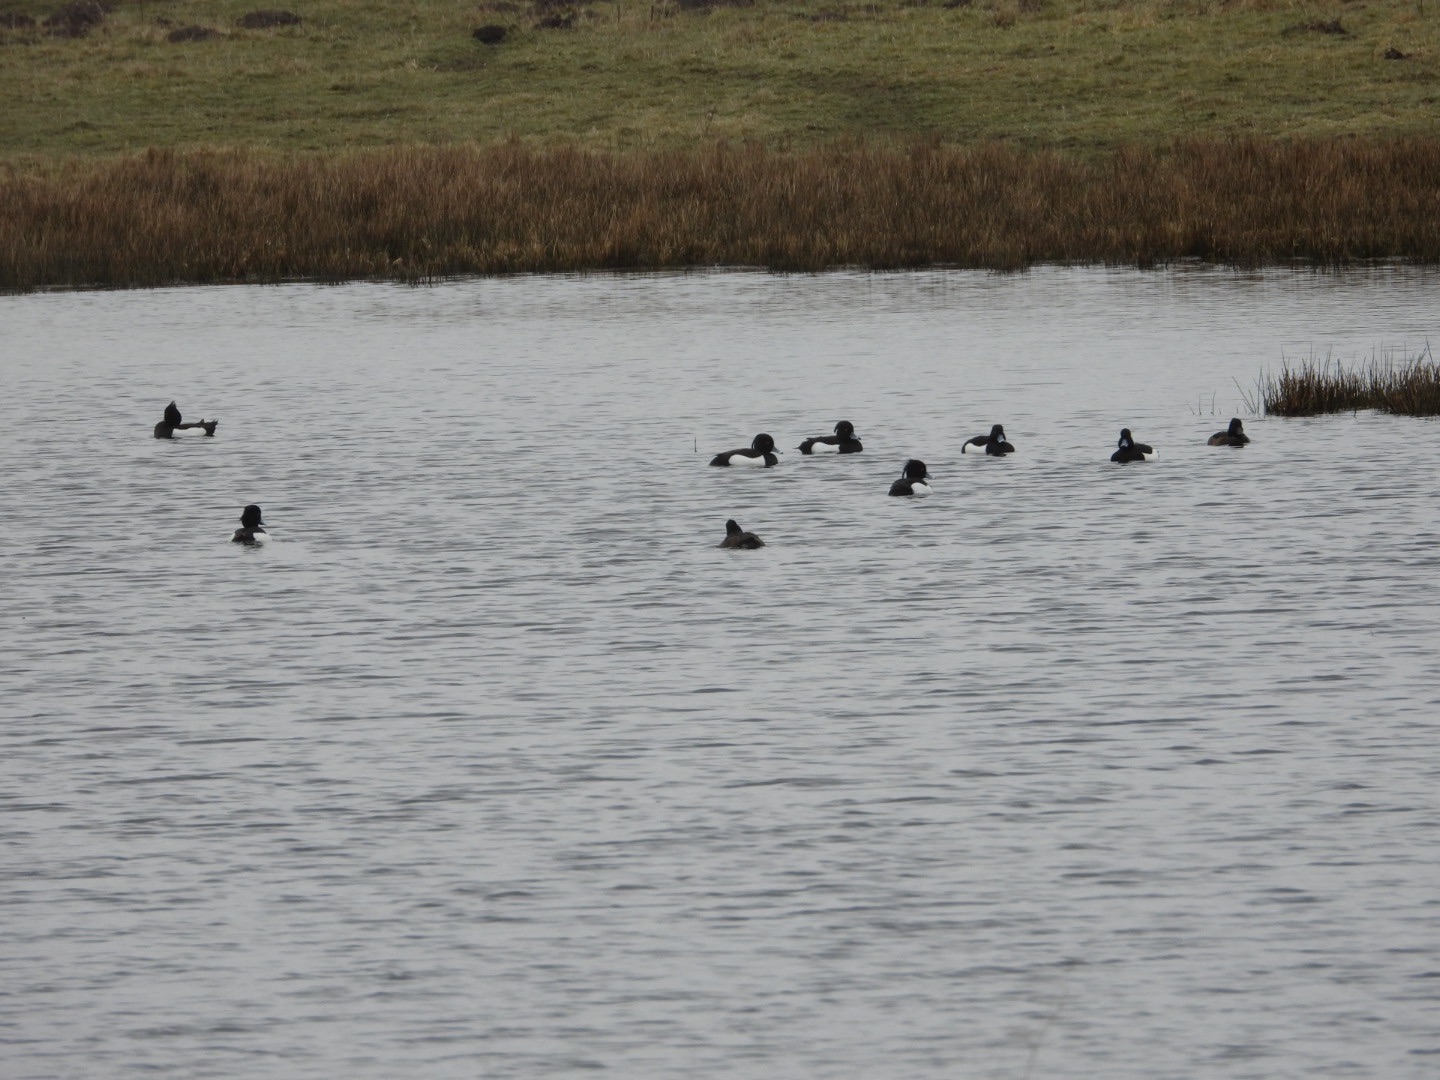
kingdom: Animalia
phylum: Chordata
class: Aves
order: Anseriformes
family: Anatidae
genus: Aythya
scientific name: Aythya fuligula
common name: Troldand
